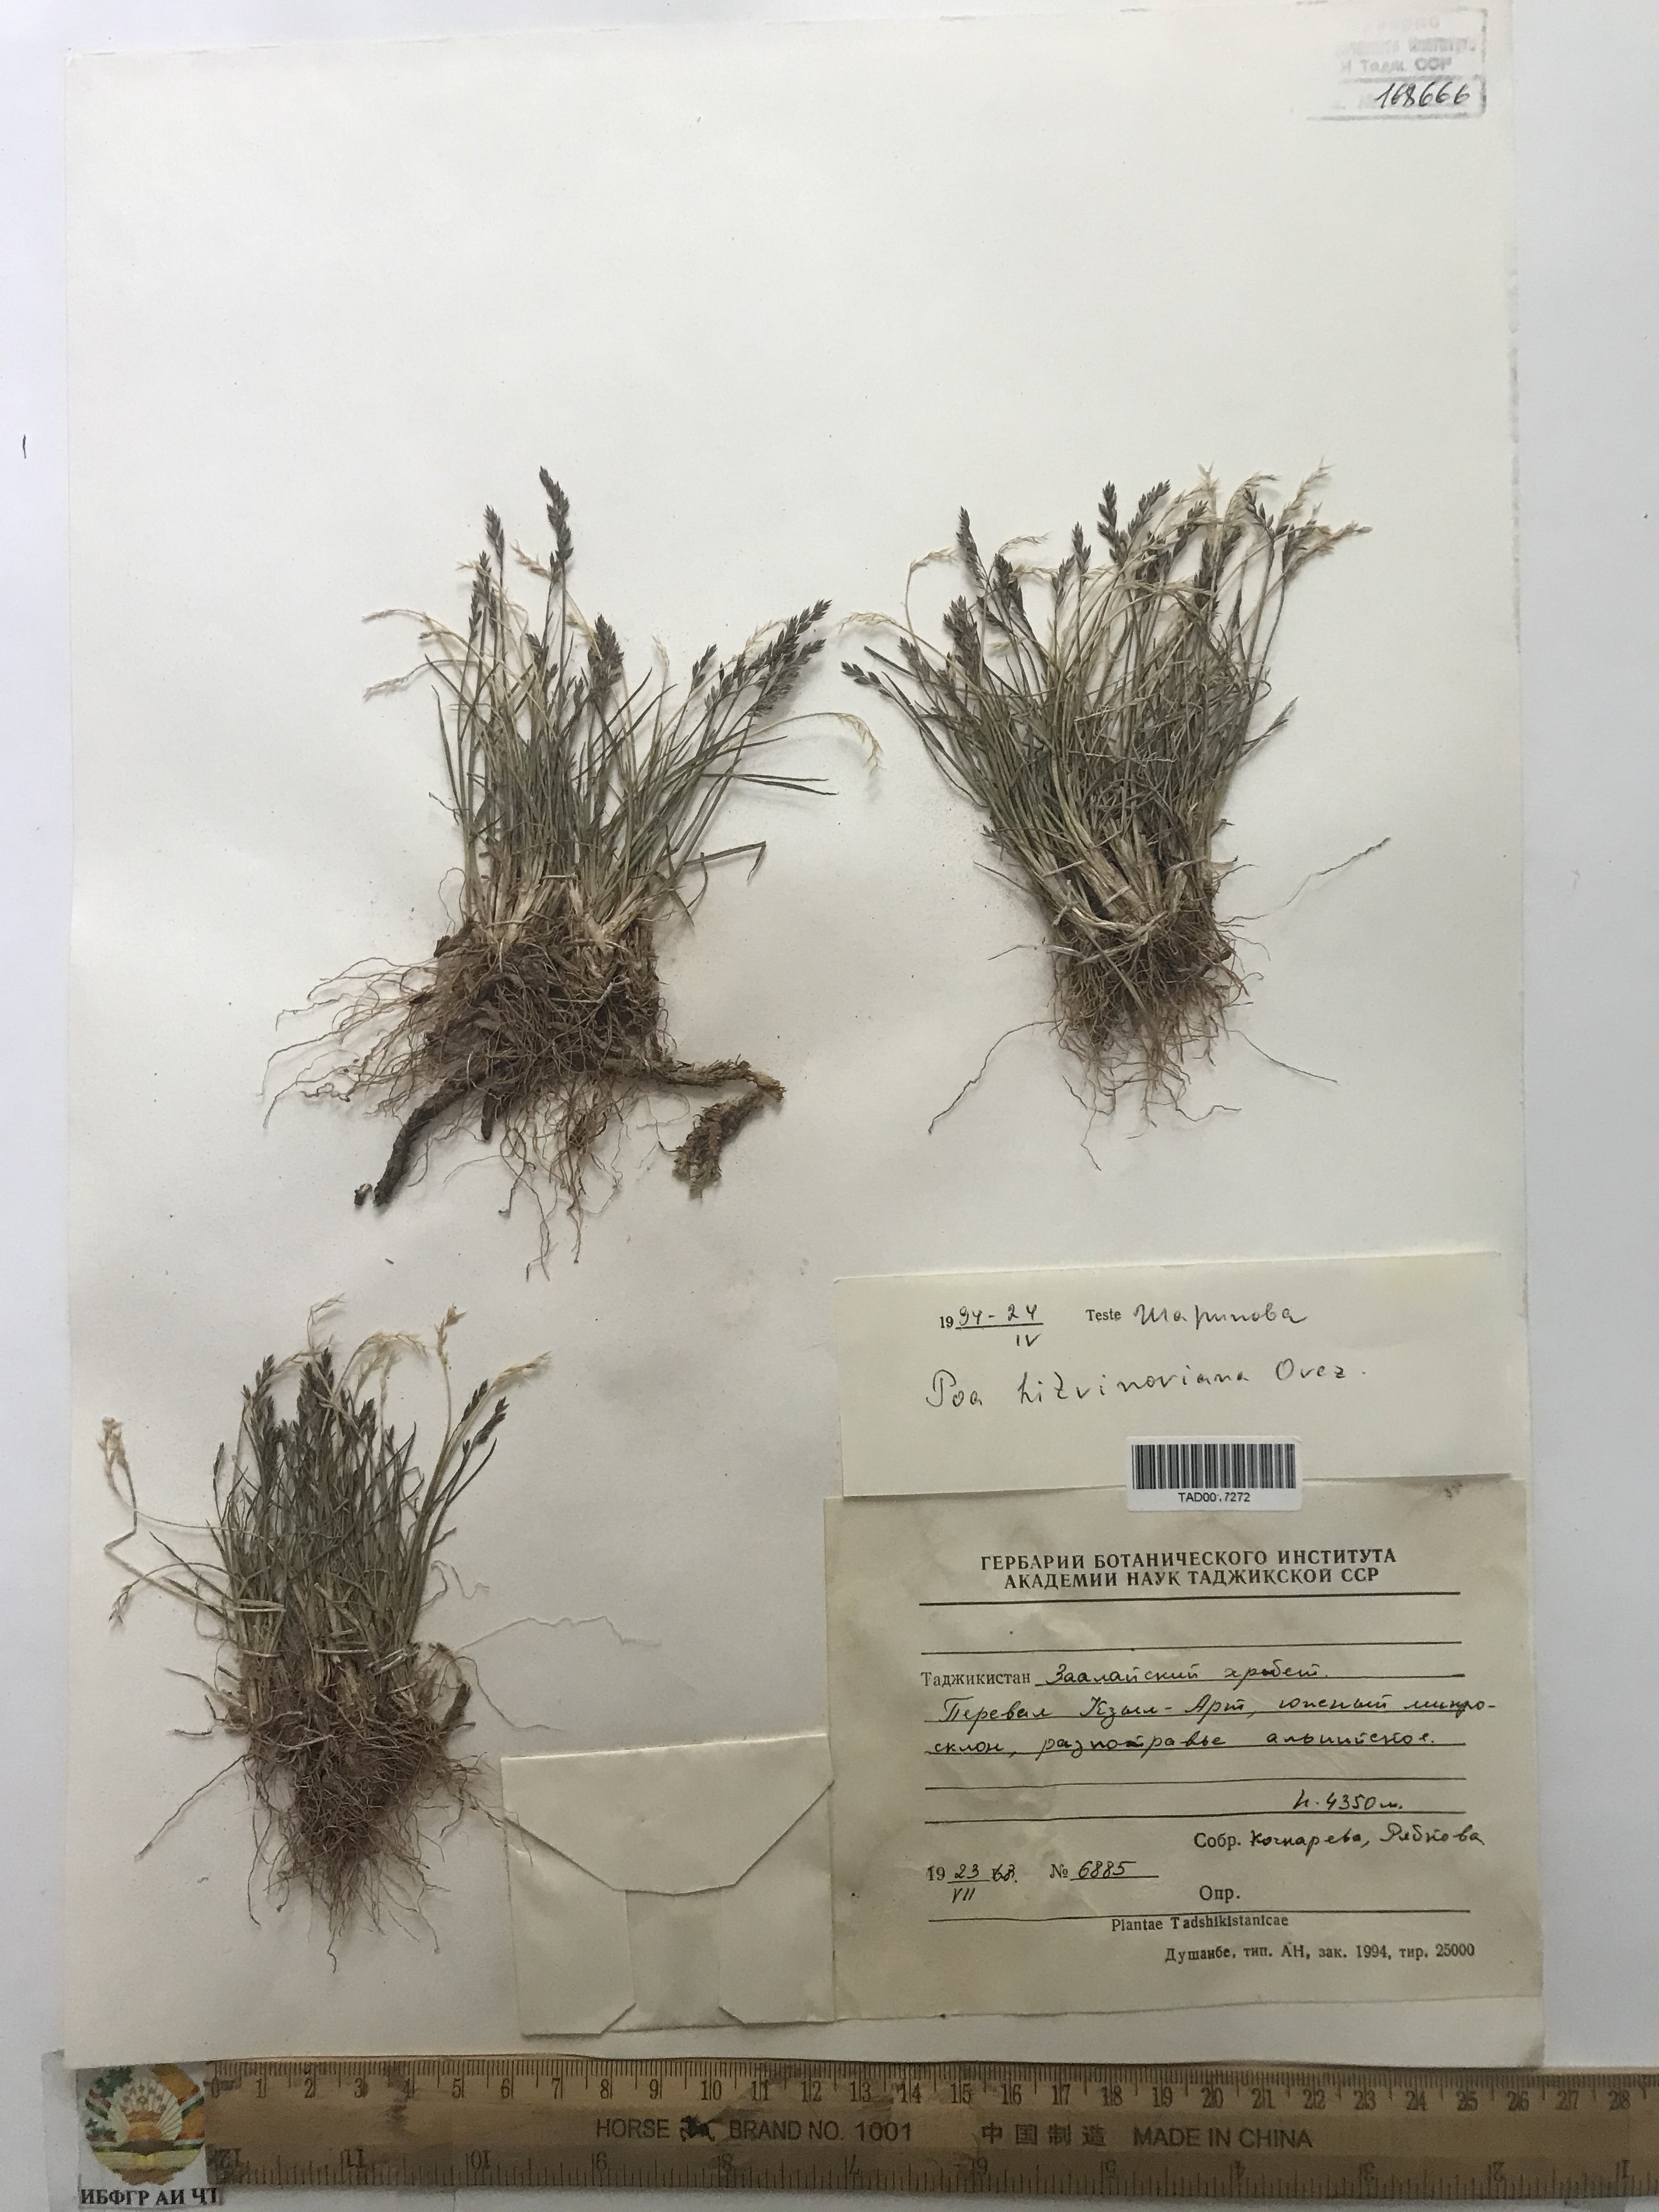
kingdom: Plantae
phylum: Tracheophyta
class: Liliopsida
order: Poales
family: Poaceae
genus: Poa
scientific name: Poa glauca
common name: Glaucous bluegrass
